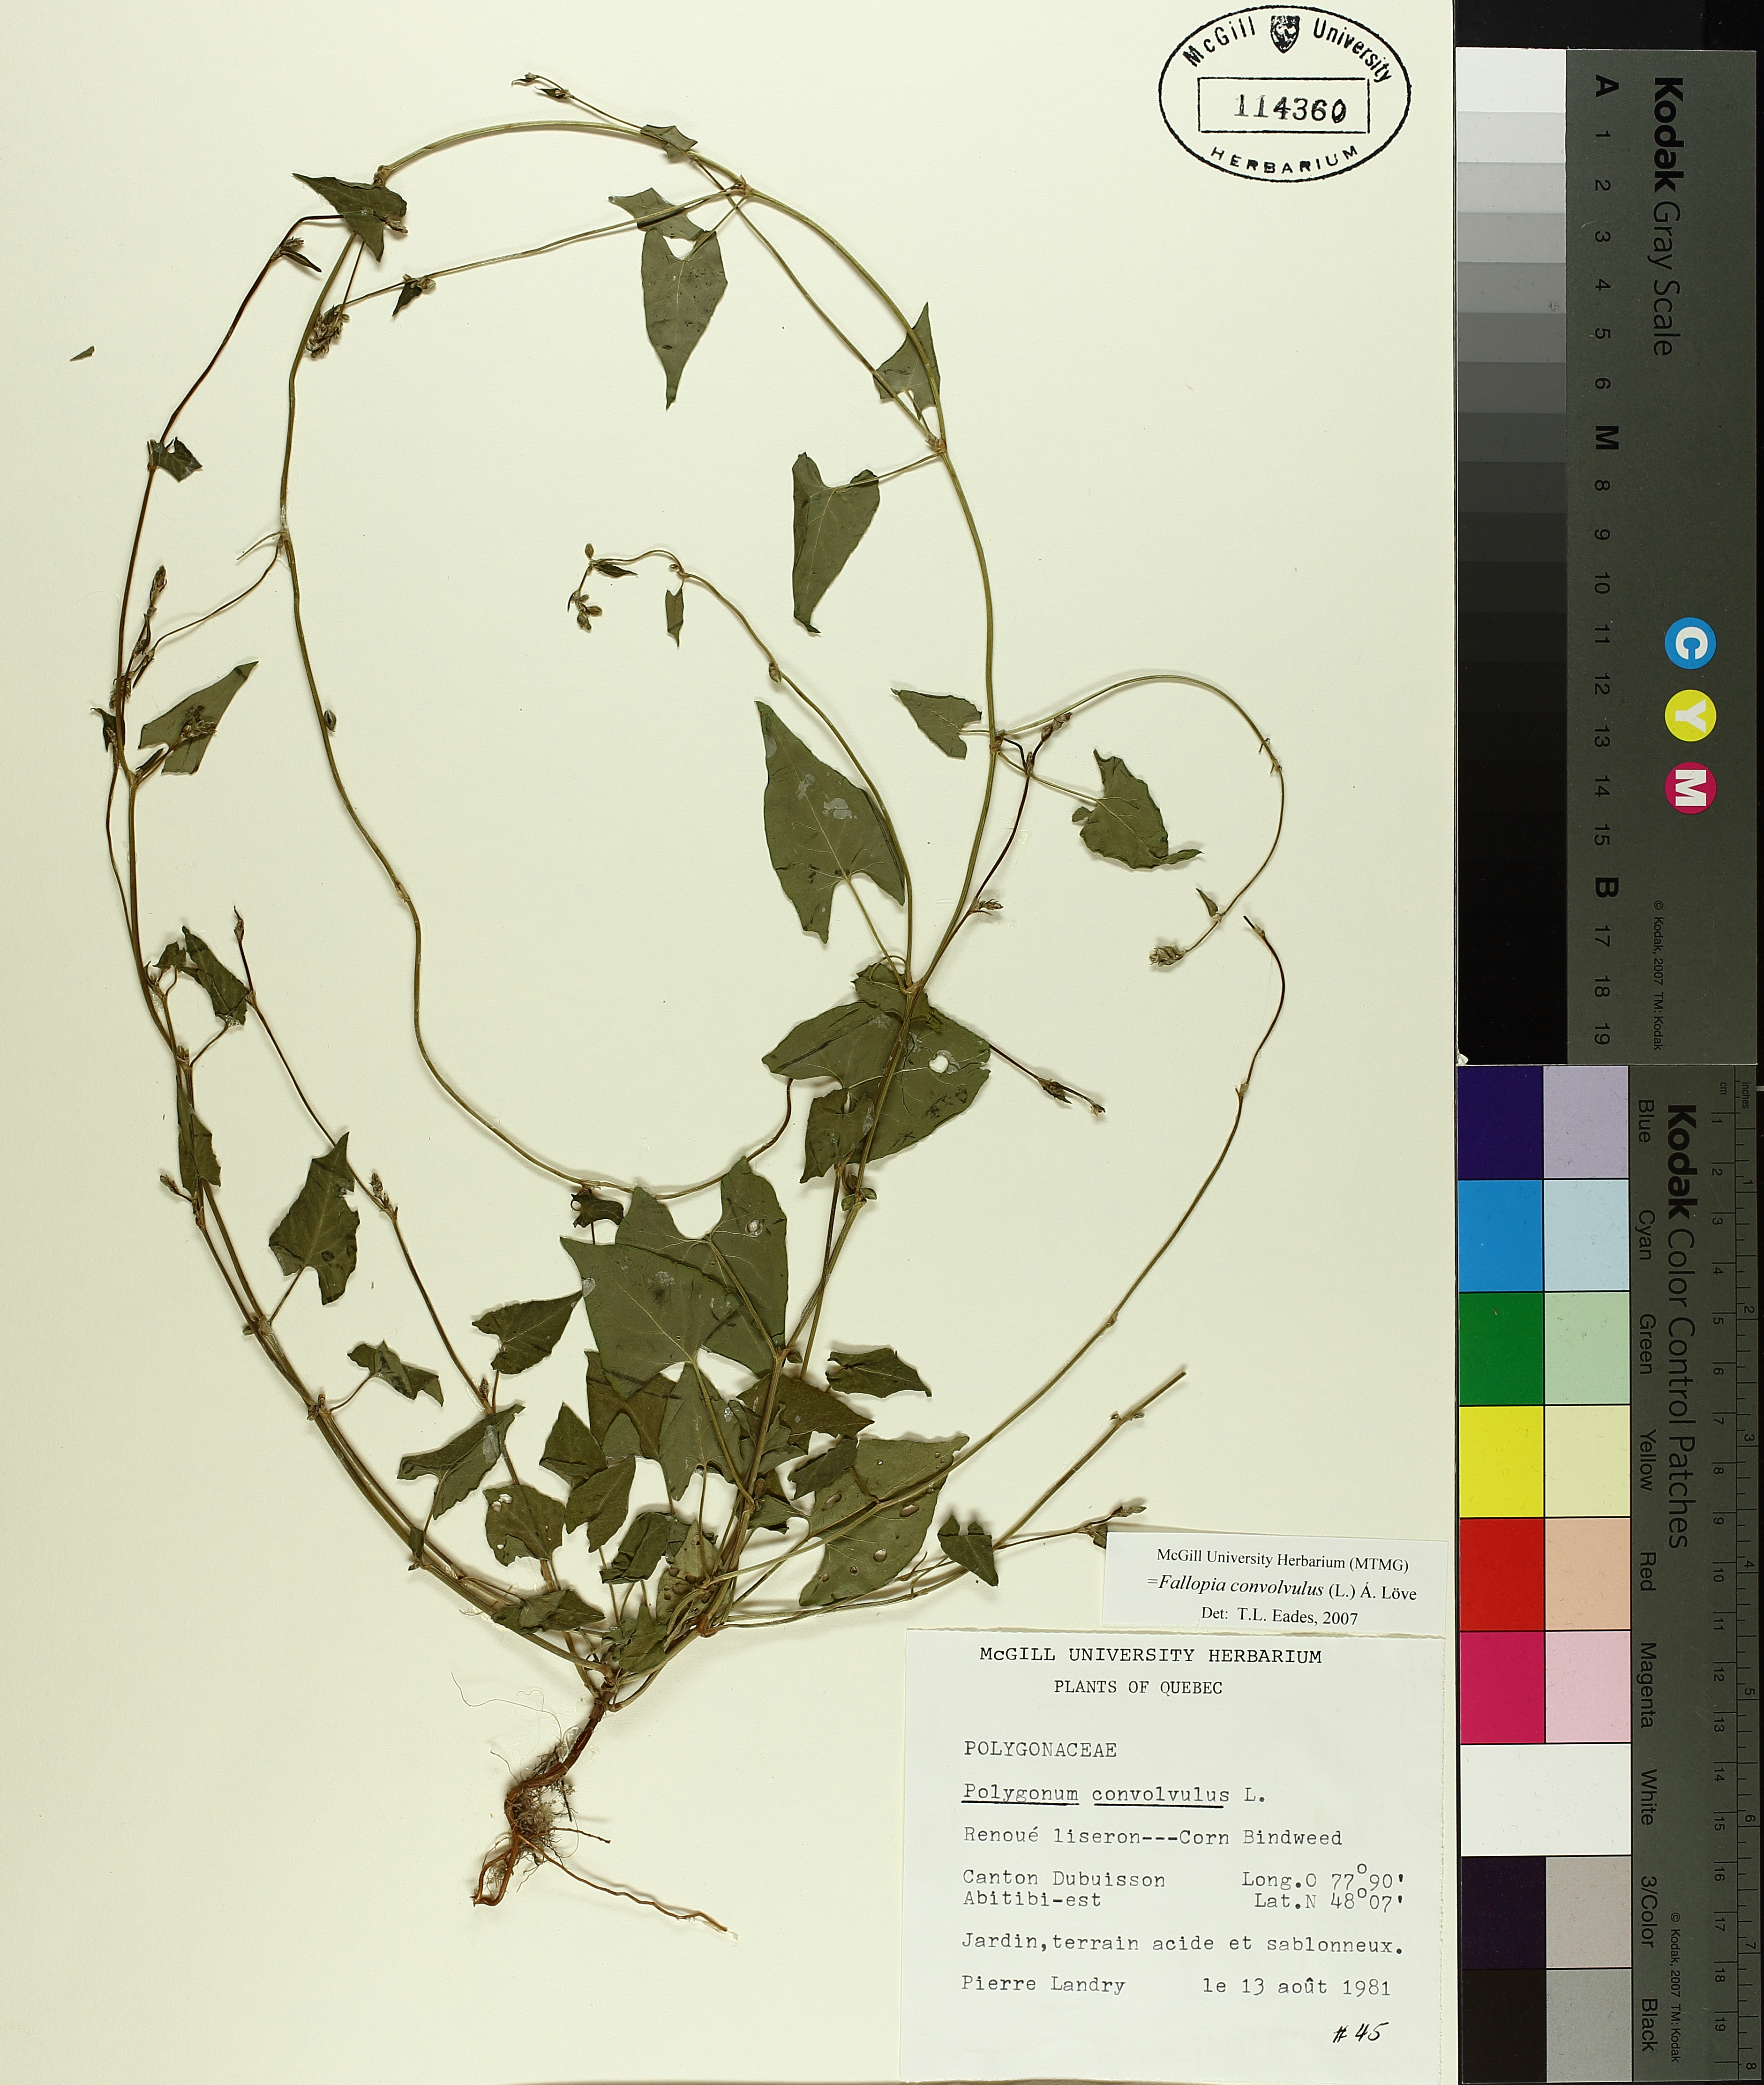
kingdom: Plantae
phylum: Tracheophyta
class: Magnoliopsida
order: Caryophyllales
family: Polygonaceae
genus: Fallopia
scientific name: Fallopia convolvulus
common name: Black bindweed
